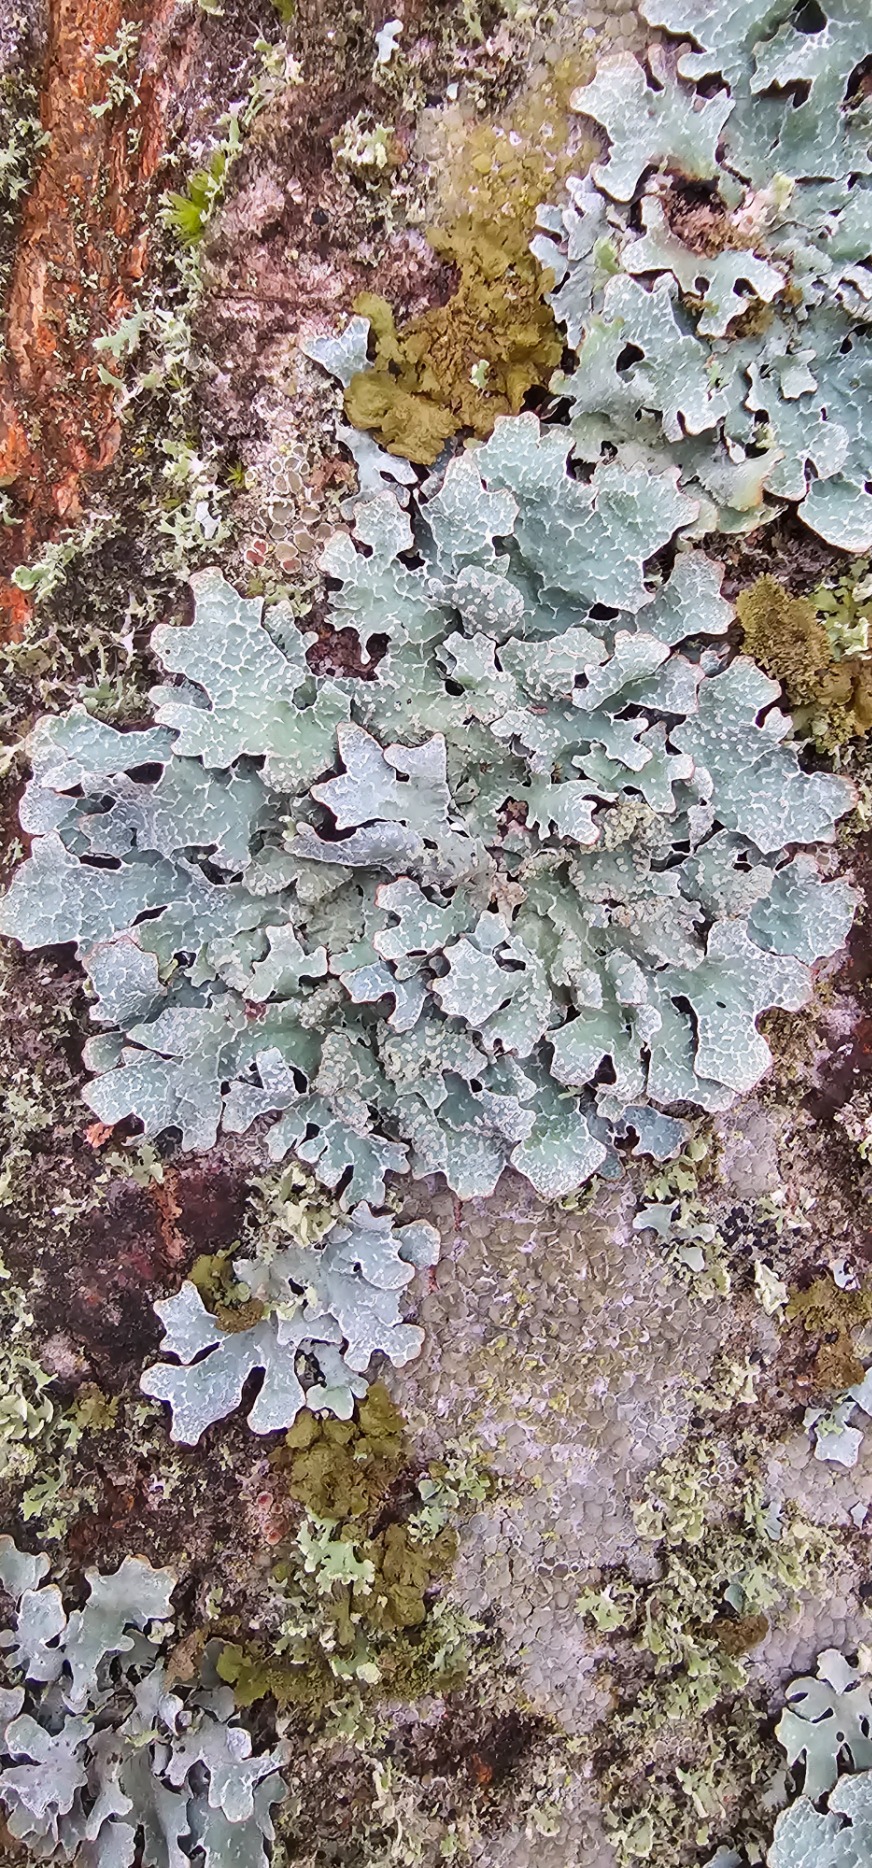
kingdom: Fungi
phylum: Ascomycota
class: Lecanoromycetes
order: Lecanorales
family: Parmeliaceae
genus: Parmelia
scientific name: Parmelia sulcata
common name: Rynket skållav
